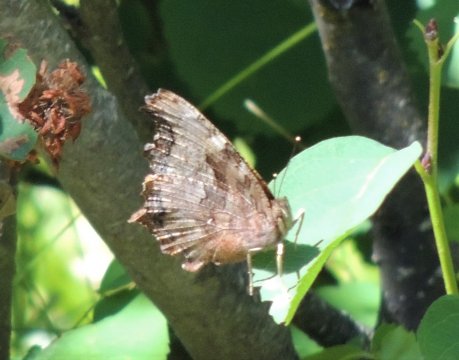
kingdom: Animalia
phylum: Arthropoda
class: Insecta
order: Lepidoptera
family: Nymphalidae
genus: Polygonia
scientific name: Polygonia vaualbum
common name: Compton Tortoiseshell
